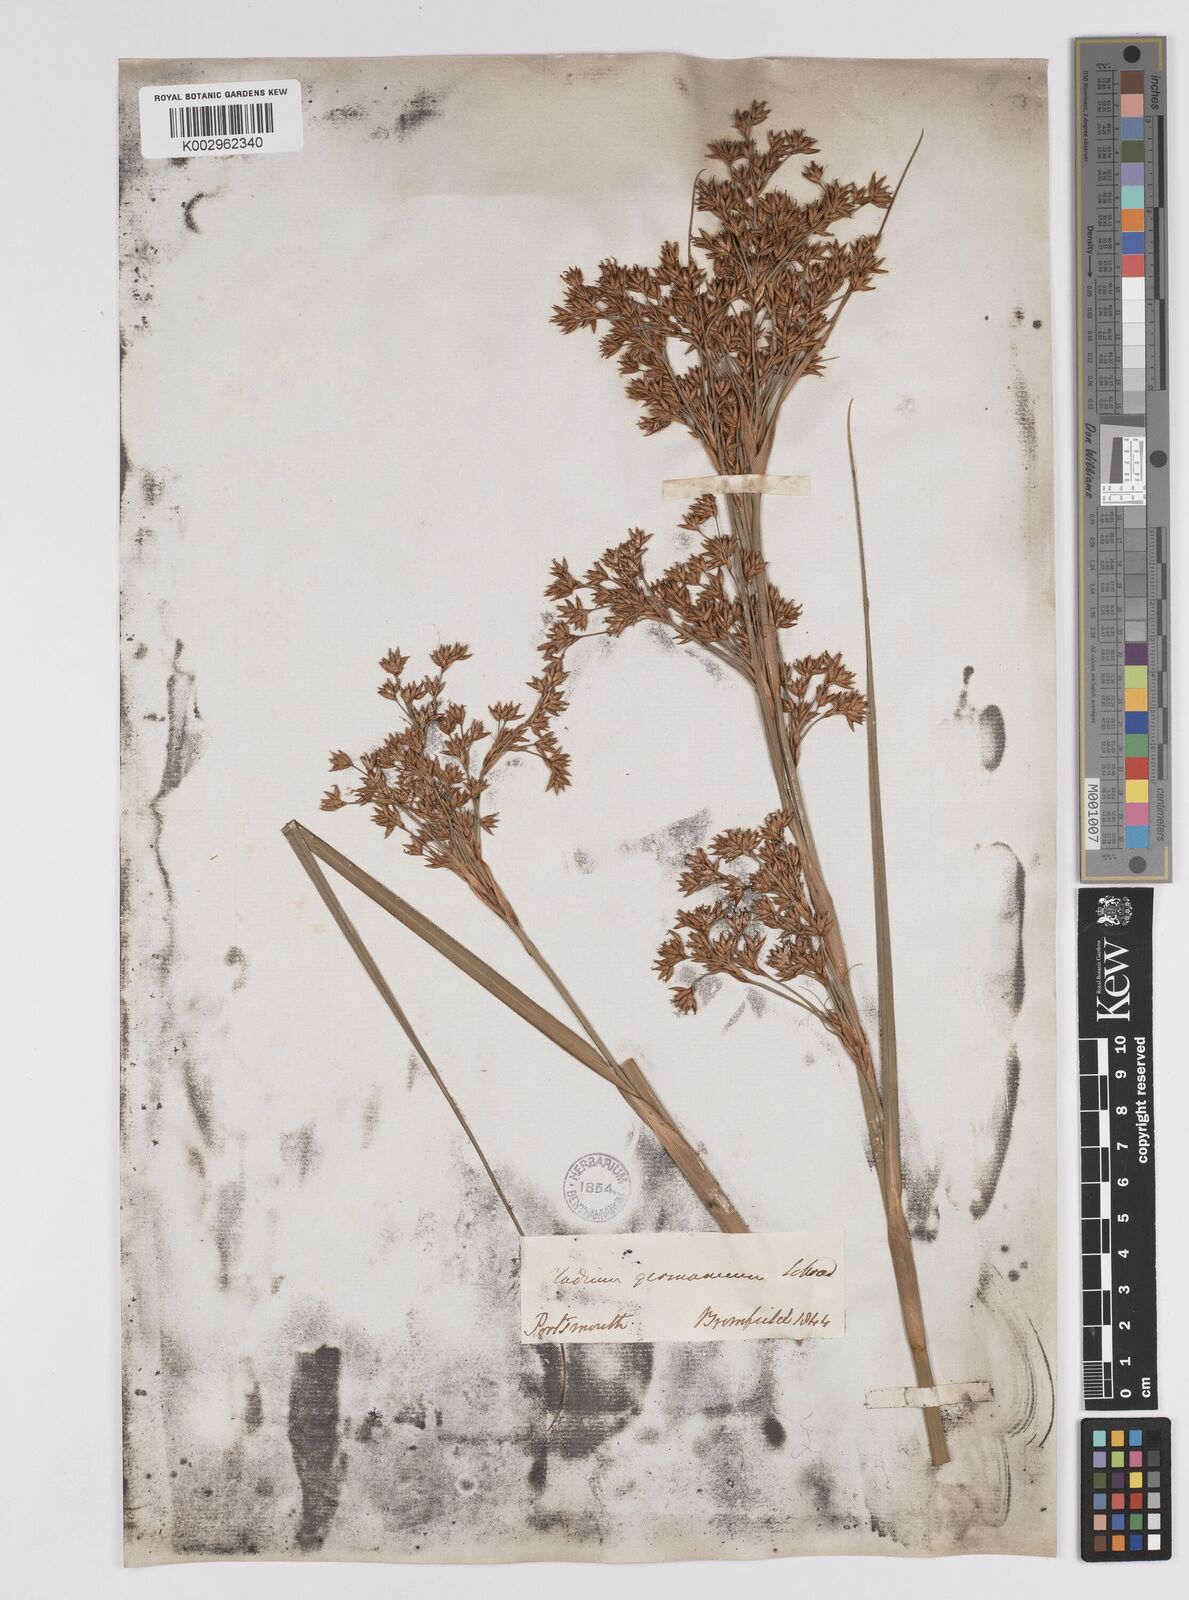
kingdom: Plantae
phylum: Tracheophyta
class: Liliopsida
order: Poales
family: Cyperaceae
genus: Cladium
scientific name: Cladium mariscus
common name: Great fen-sedge
